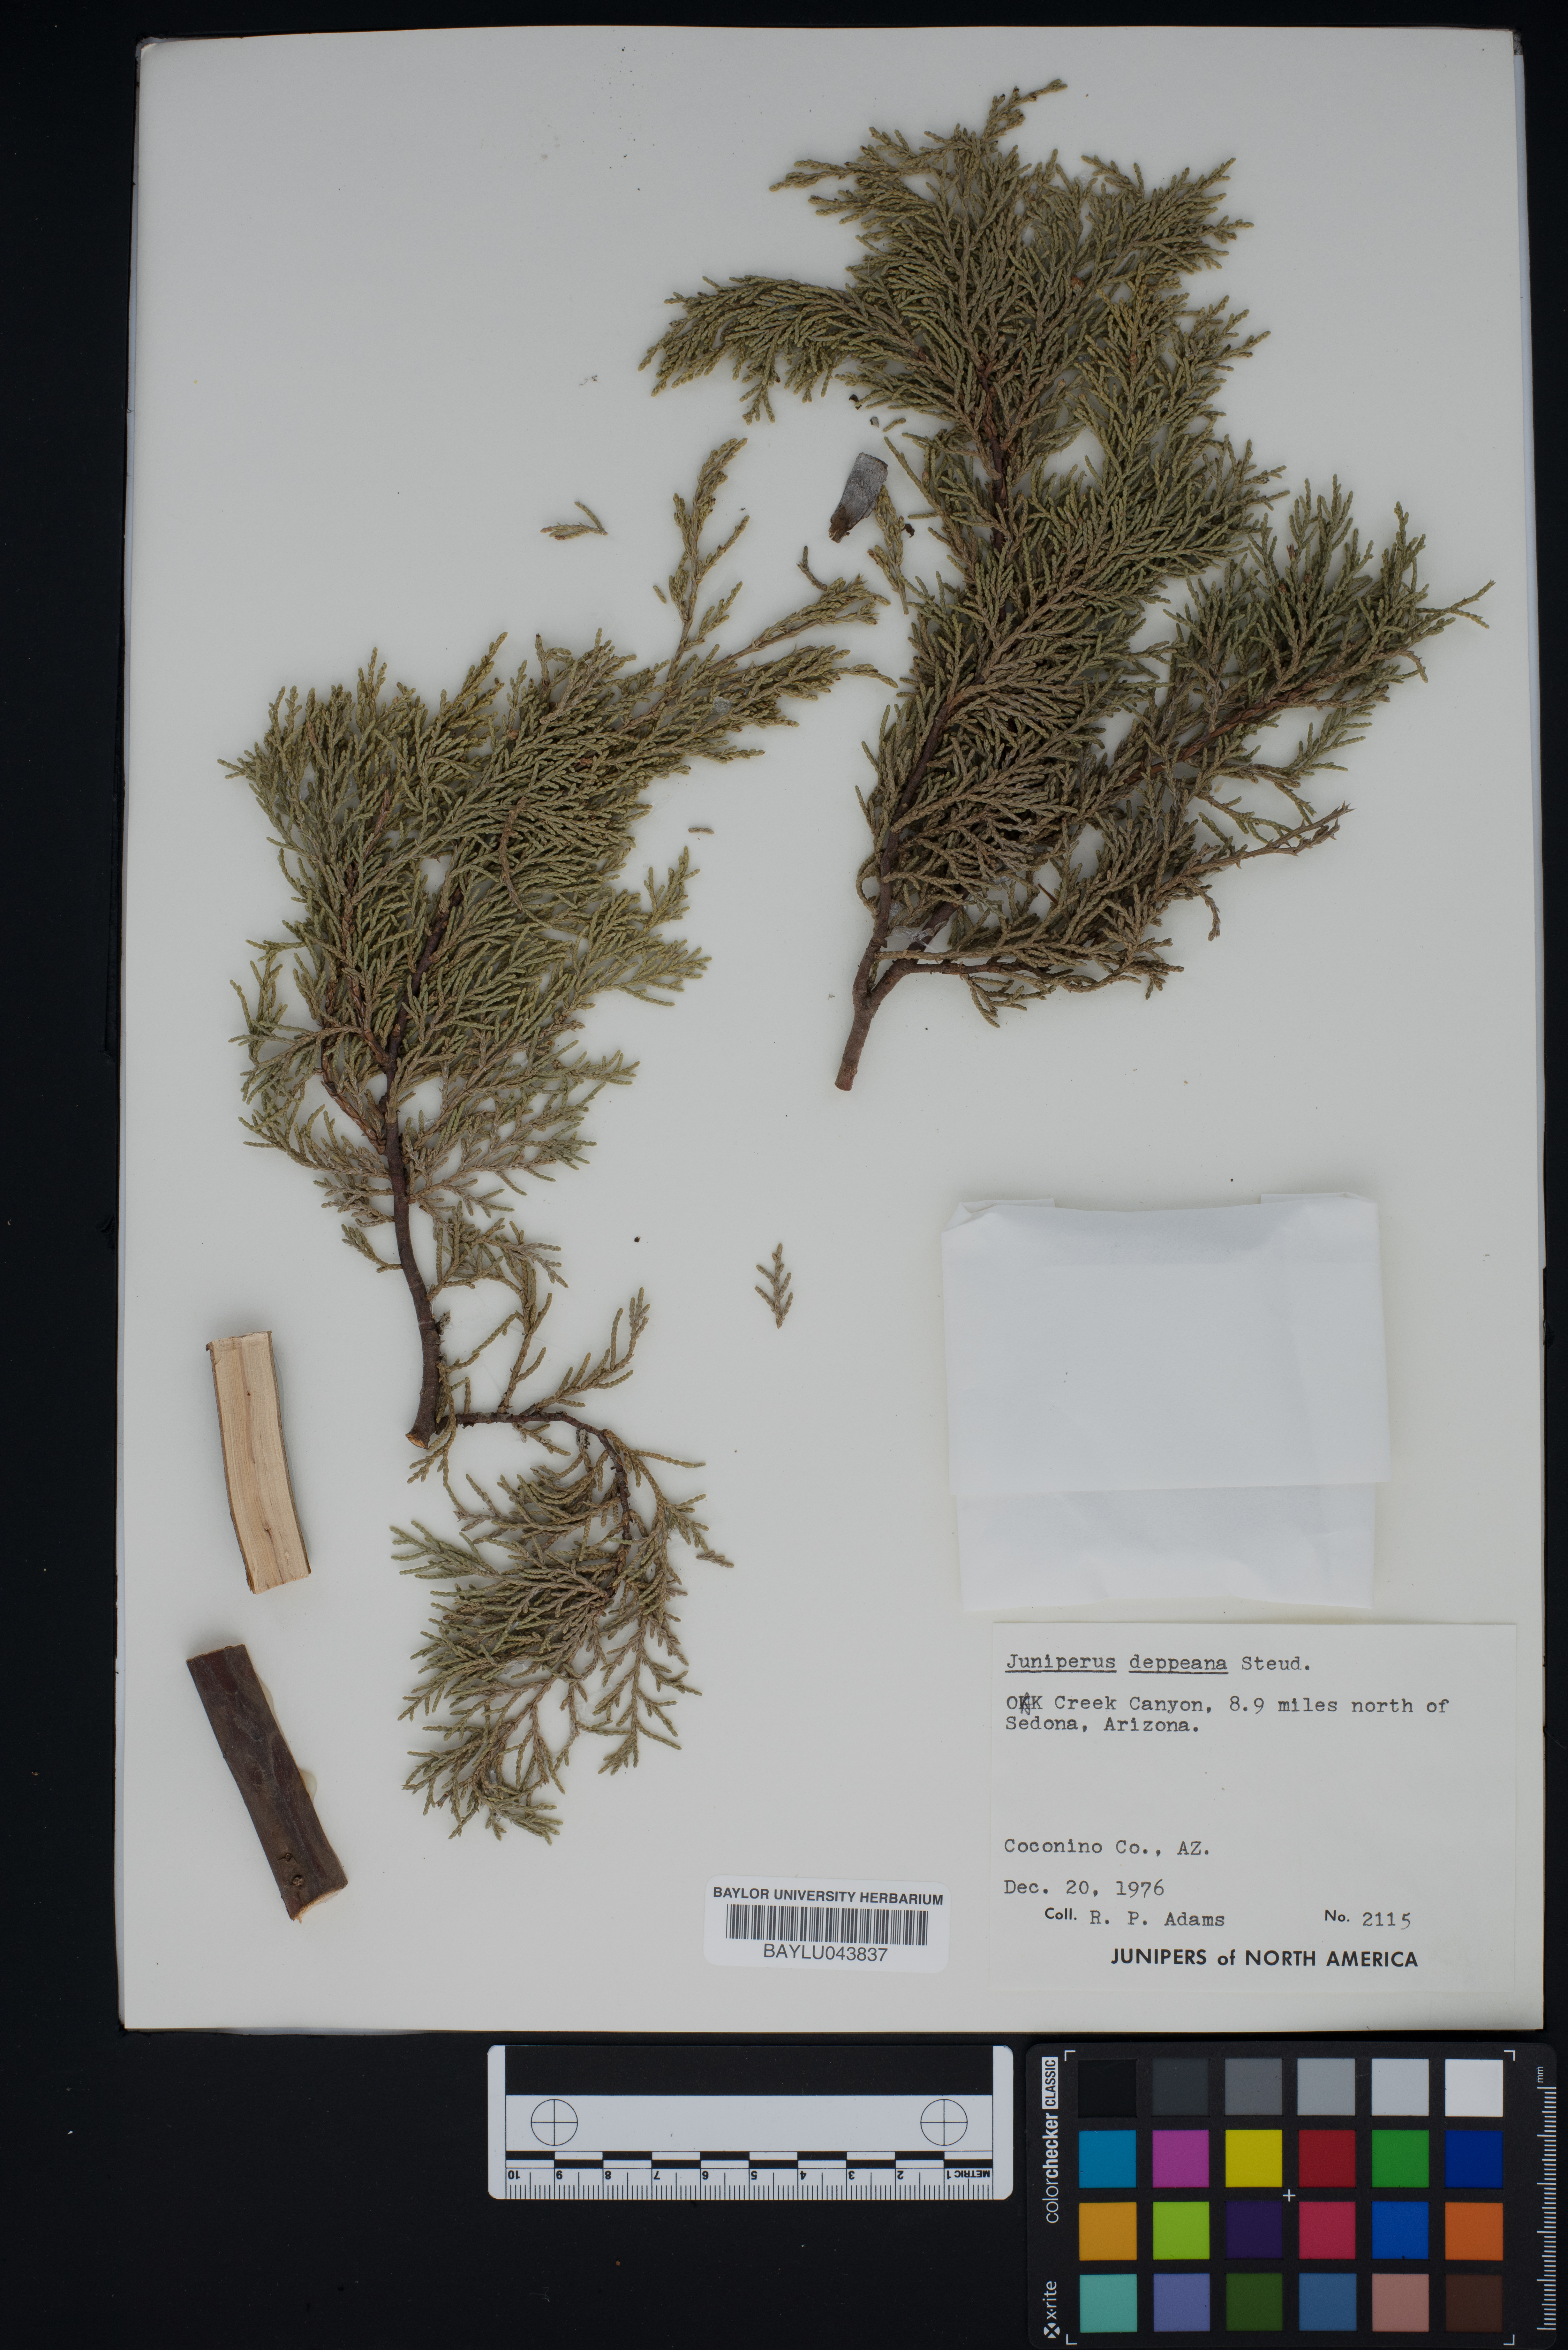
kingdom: Plantae
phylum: Tracheophyta
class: Pinopsida
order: Pinales
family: Cupressaceae
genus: Juniperus
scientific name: Juniperus deppeana
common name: Alligator juniper
